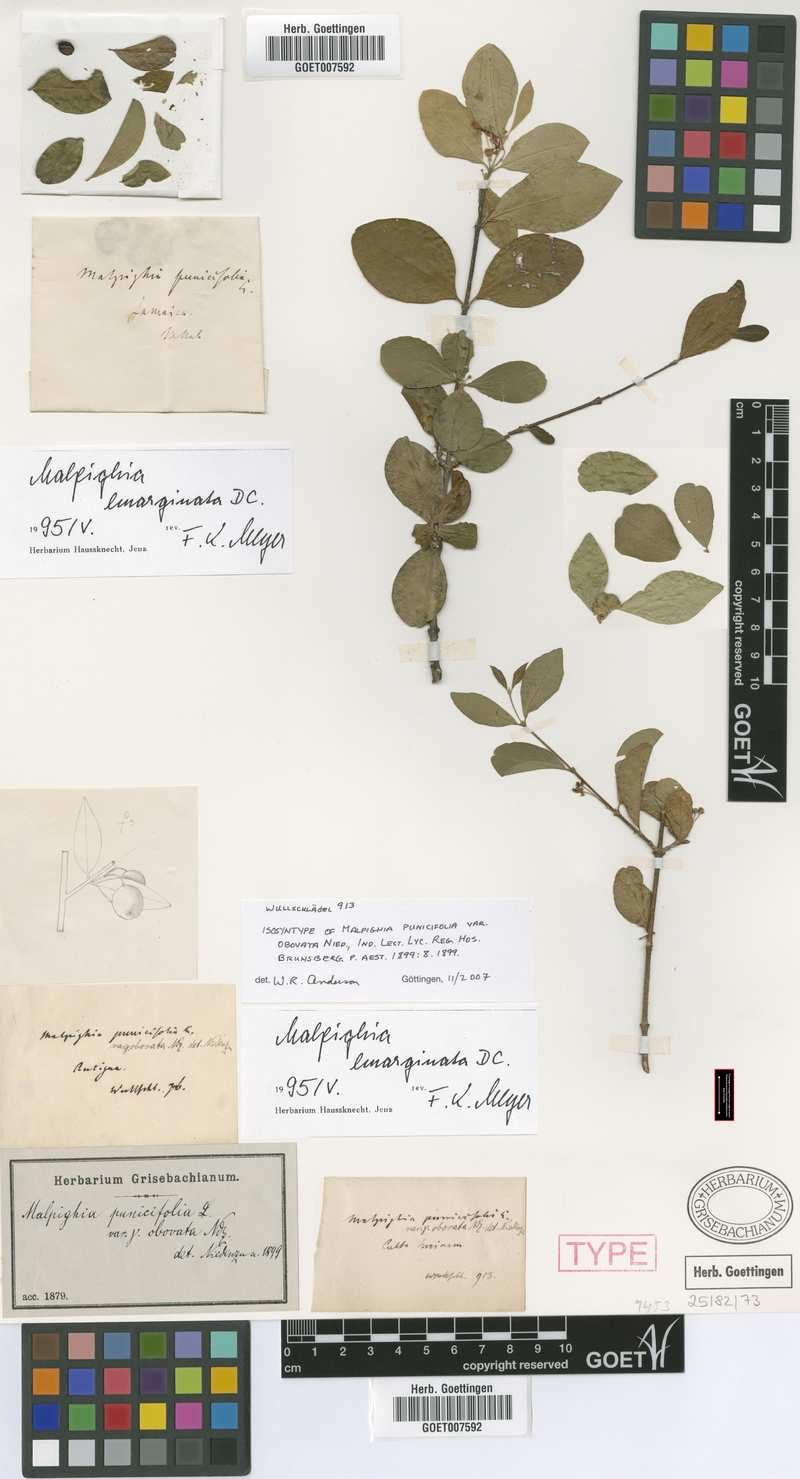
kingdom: Plantae
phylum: Tracheophyta
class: Magnoliopsida
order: Malpighiales
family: Malpighiaceae
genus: Malpighia
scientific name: Malpighia emarginata
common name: Barbados cherry
